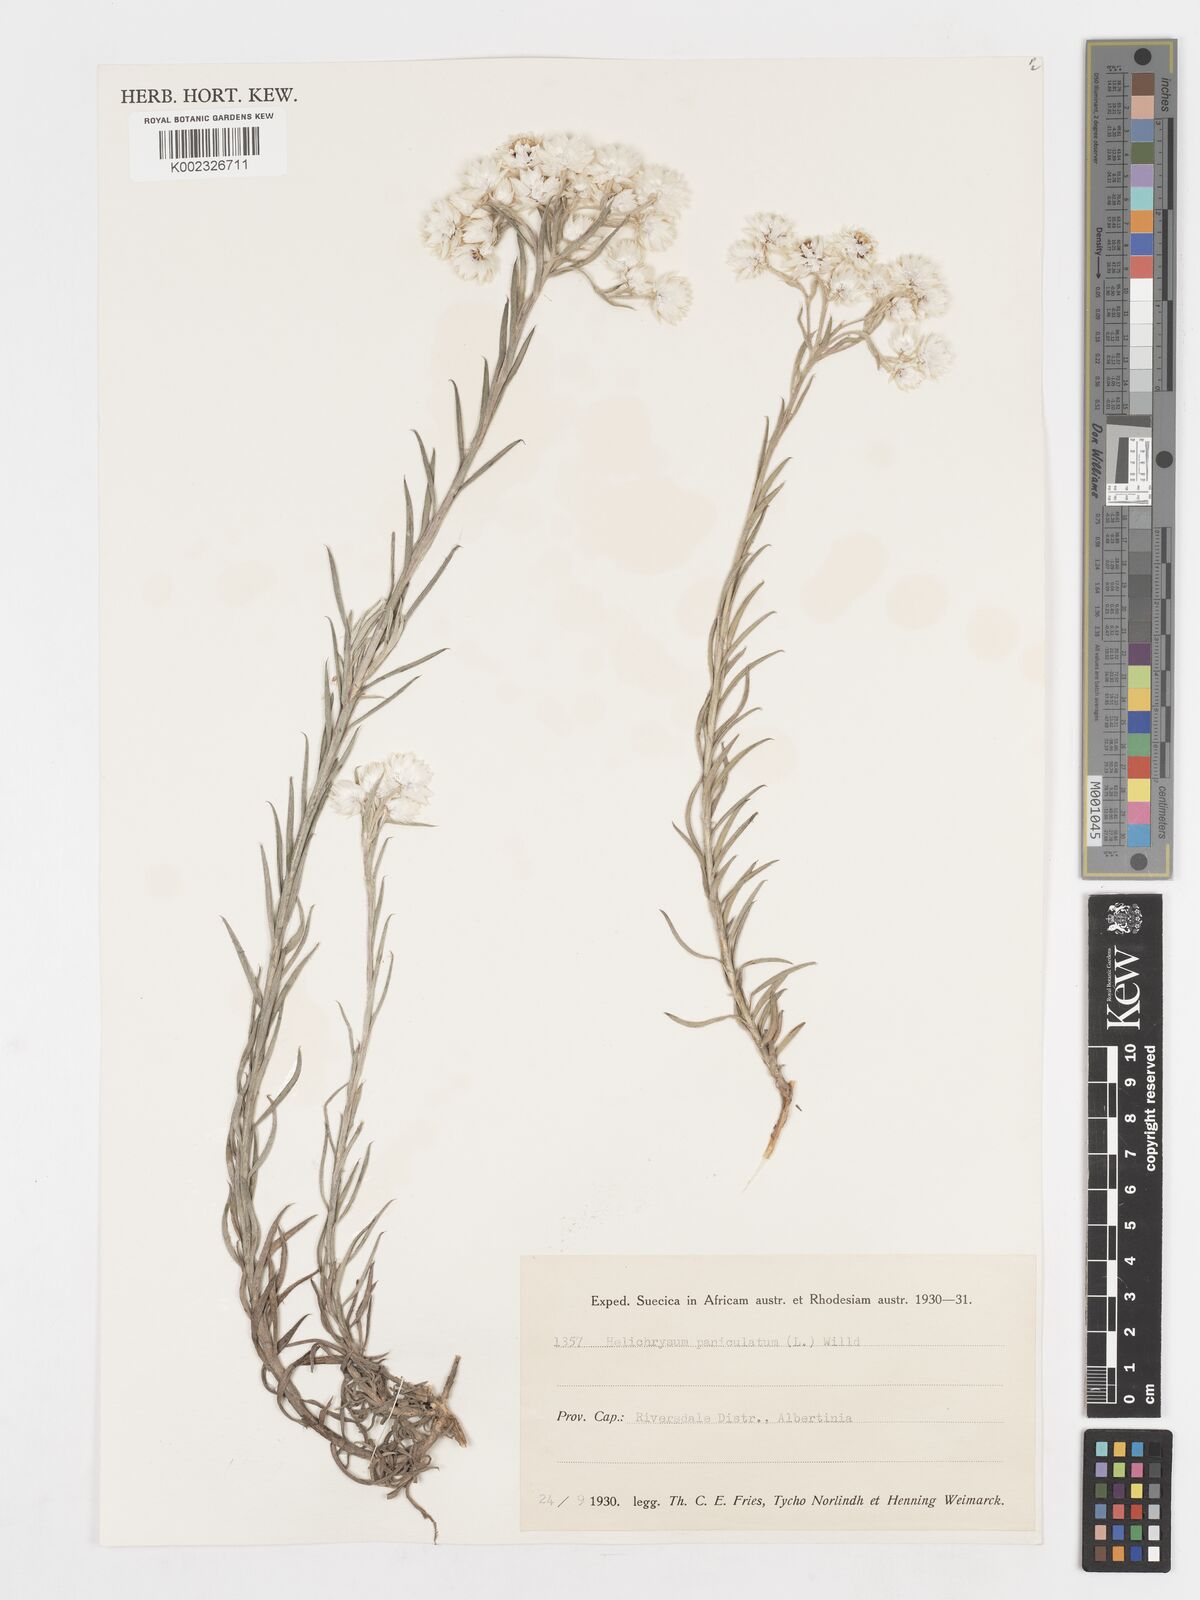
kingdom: Plantae
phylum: Tracheophyta
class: Magnoliopsida
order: Asterales
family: Asteraceae
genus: Achyranthemum
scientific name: Achyranthemum paniculatum
